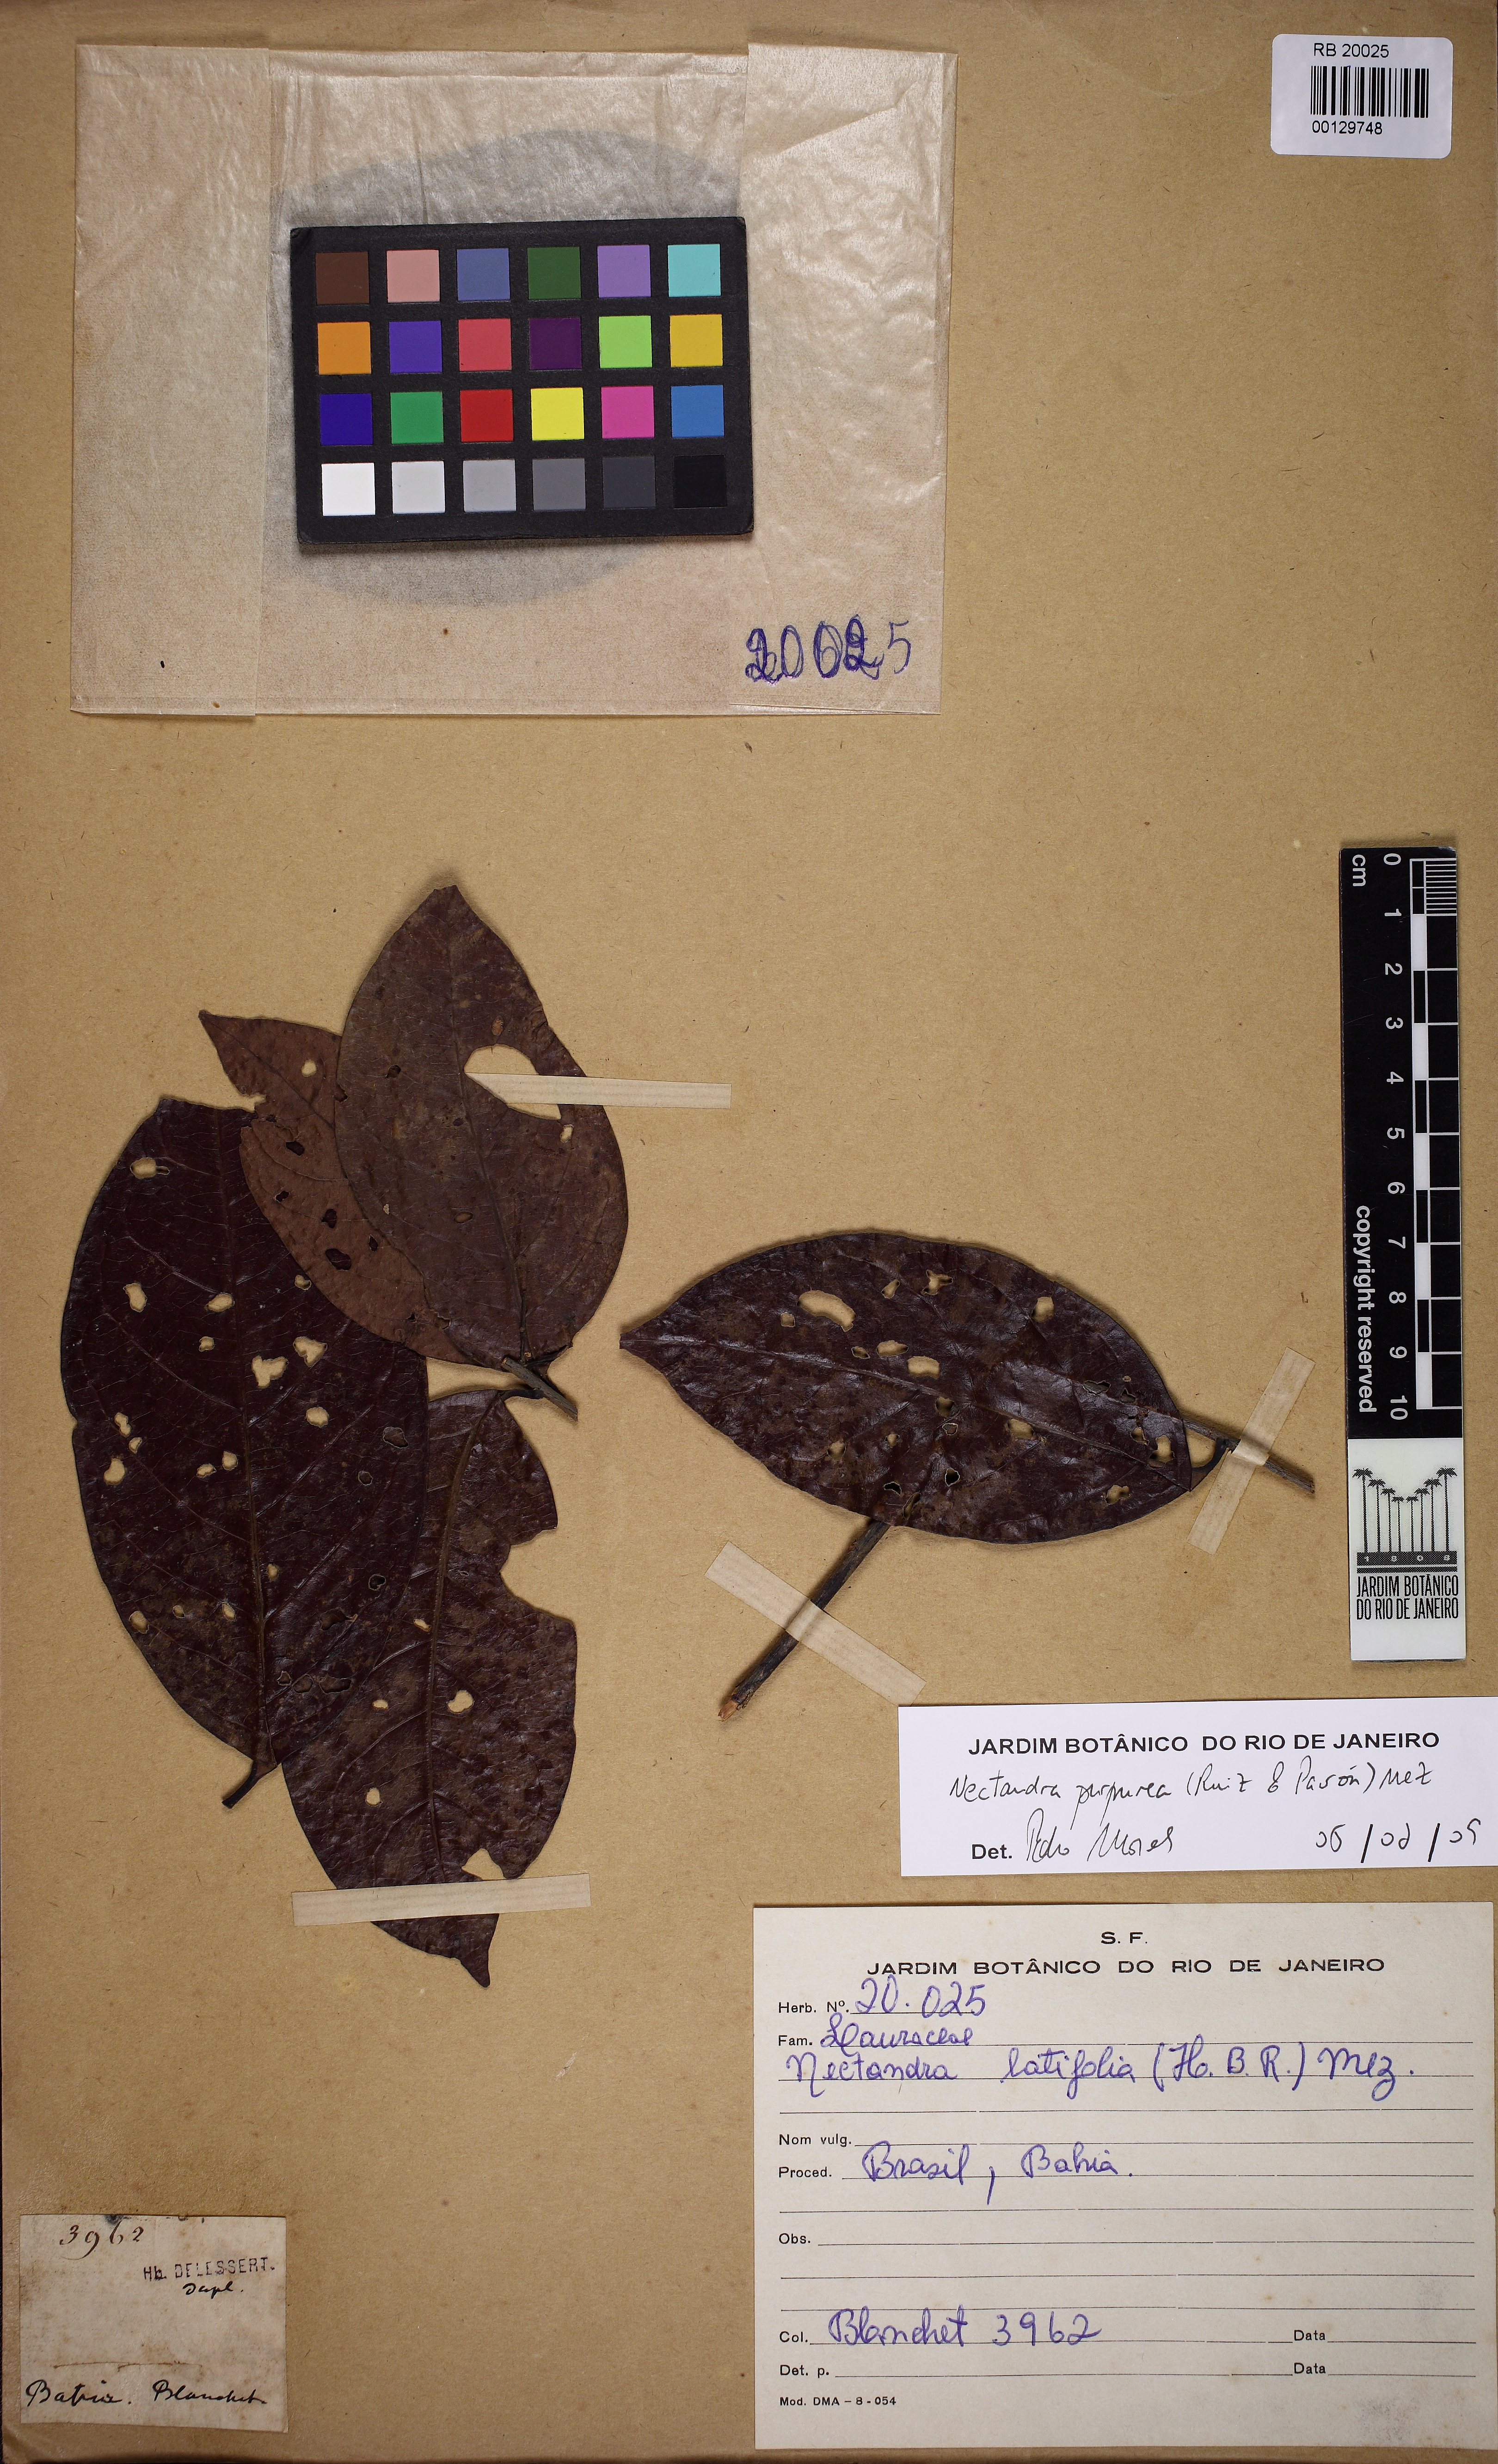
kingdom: Plantae
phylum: Tracheophyta
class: Magnoliopsida
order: Laurales
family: Lauraceae
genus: Damburneya
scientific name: Damburneya purpurea
